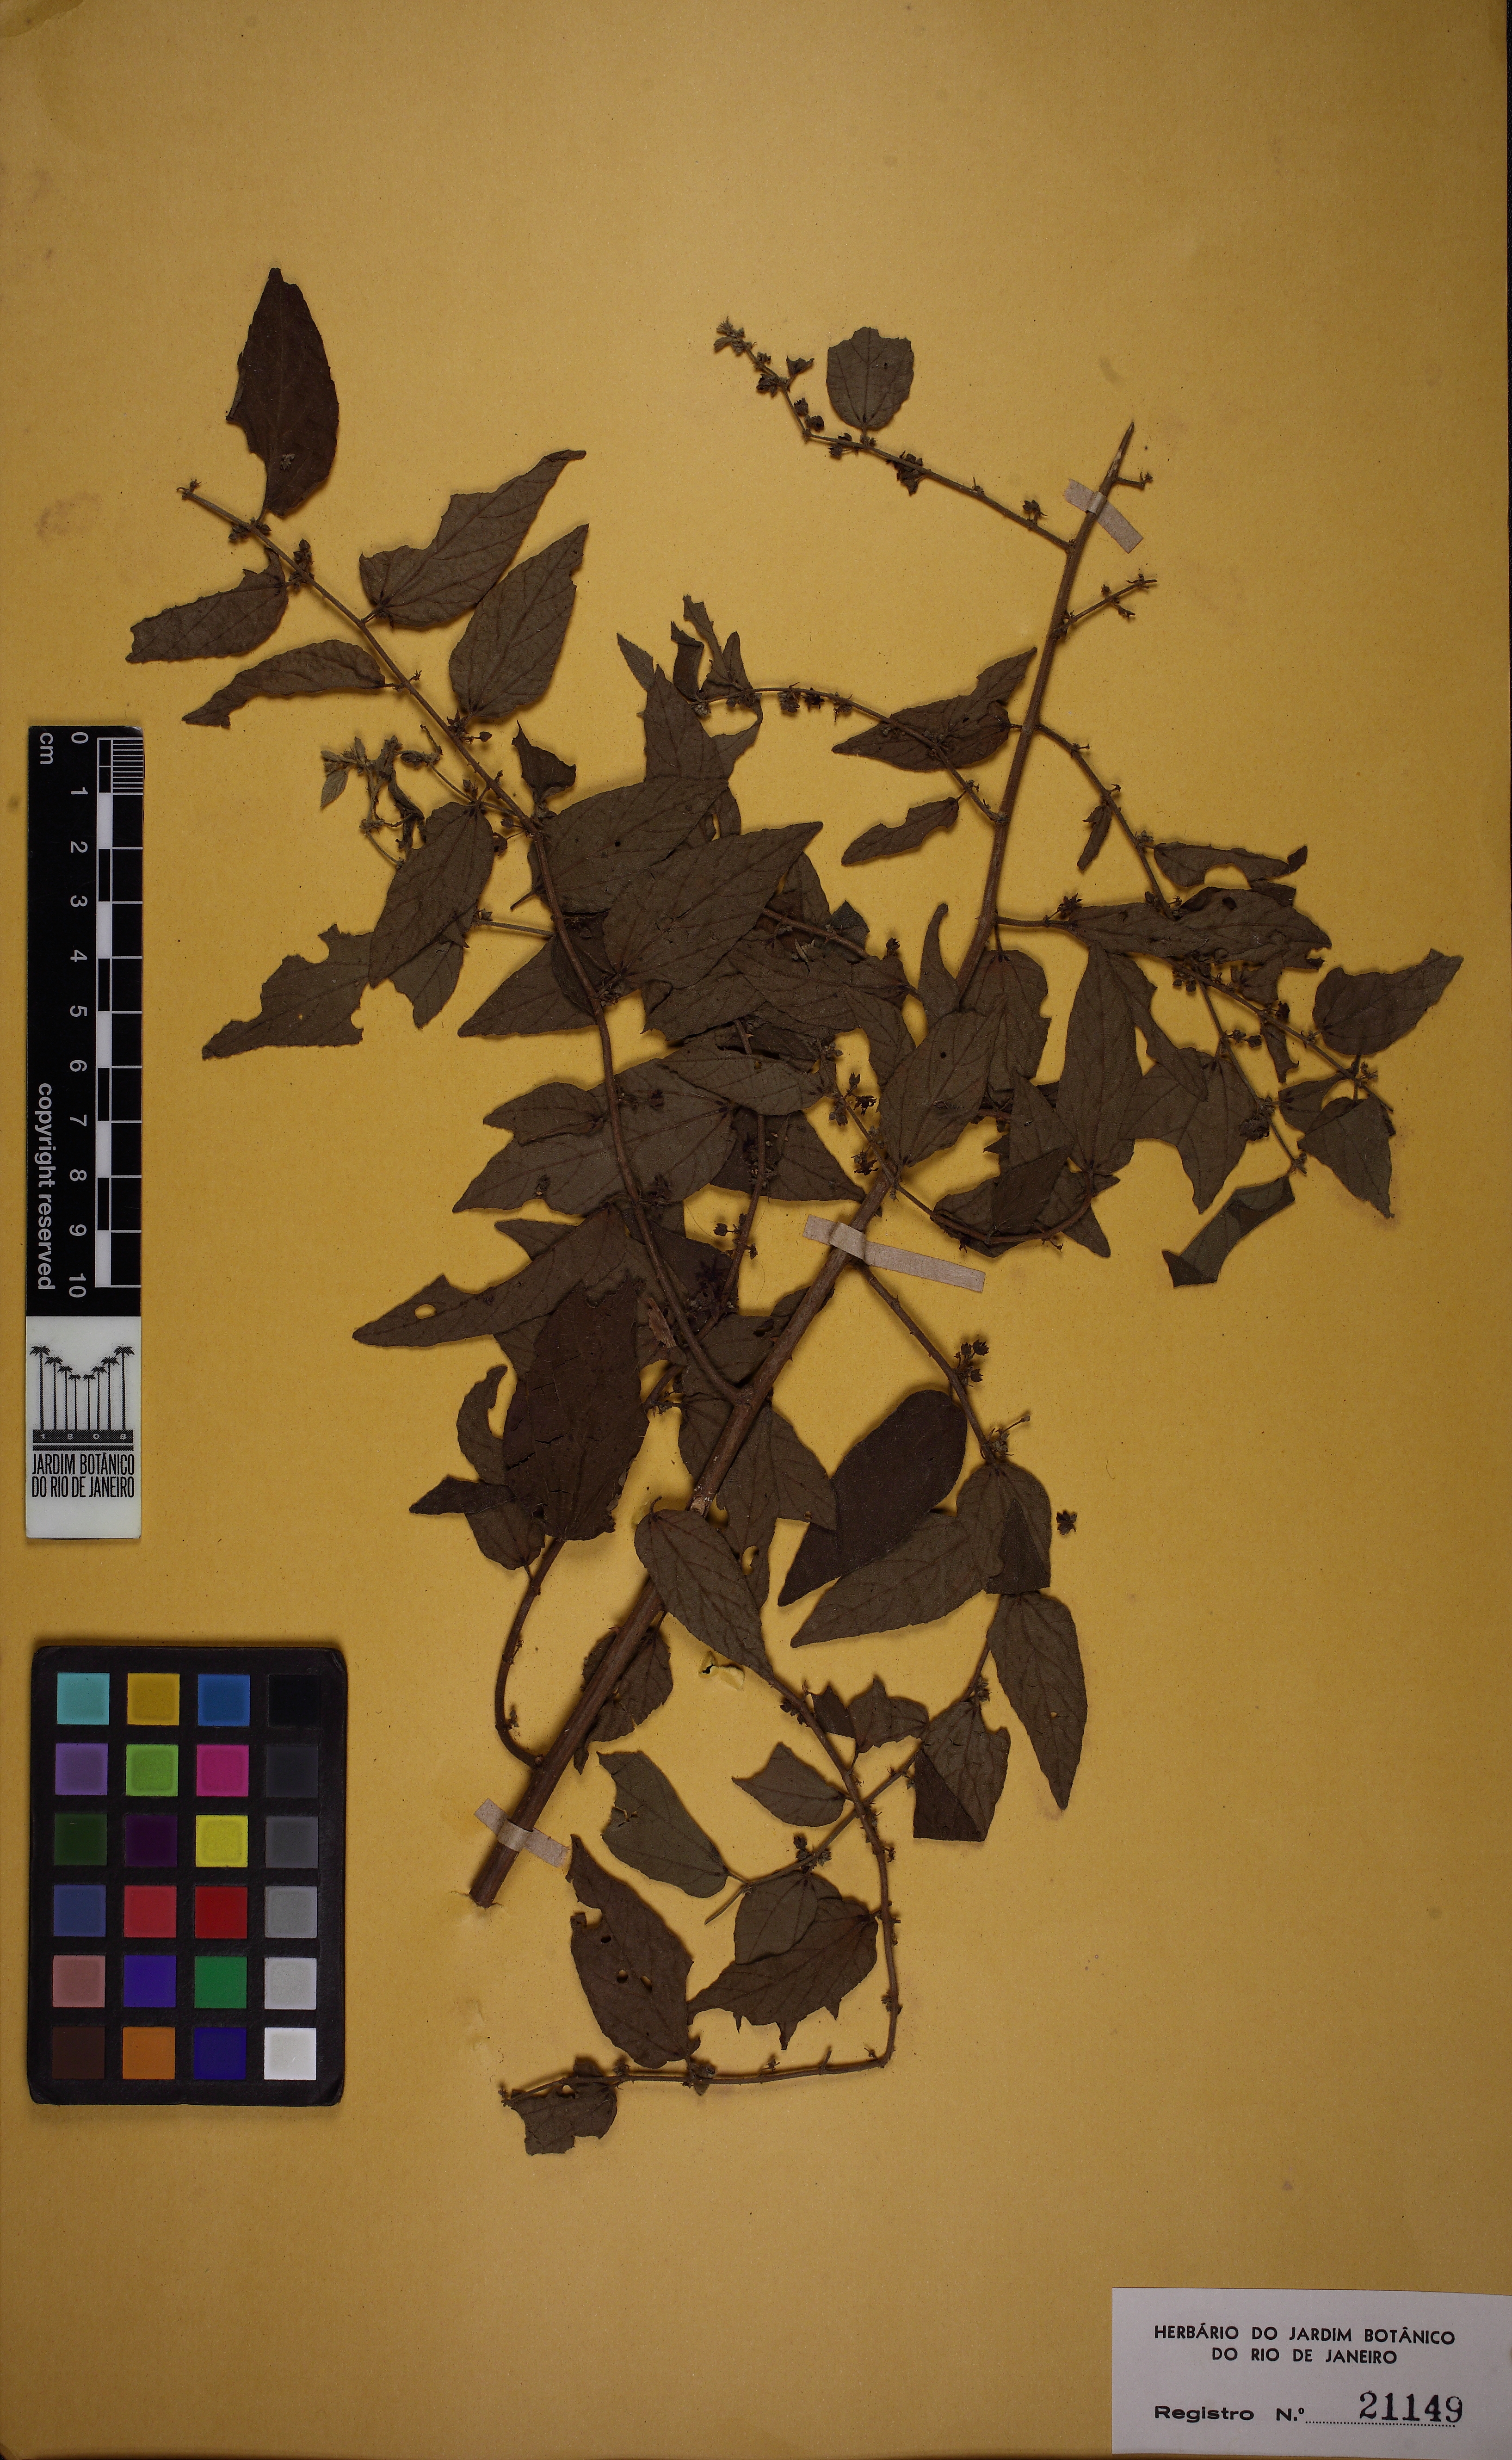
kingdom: Plantae
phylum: Tracheophyta
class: Magnoliopsida
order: Malvales
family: Malvaceae
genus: Byttneria
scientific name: Byttneria divaricata
